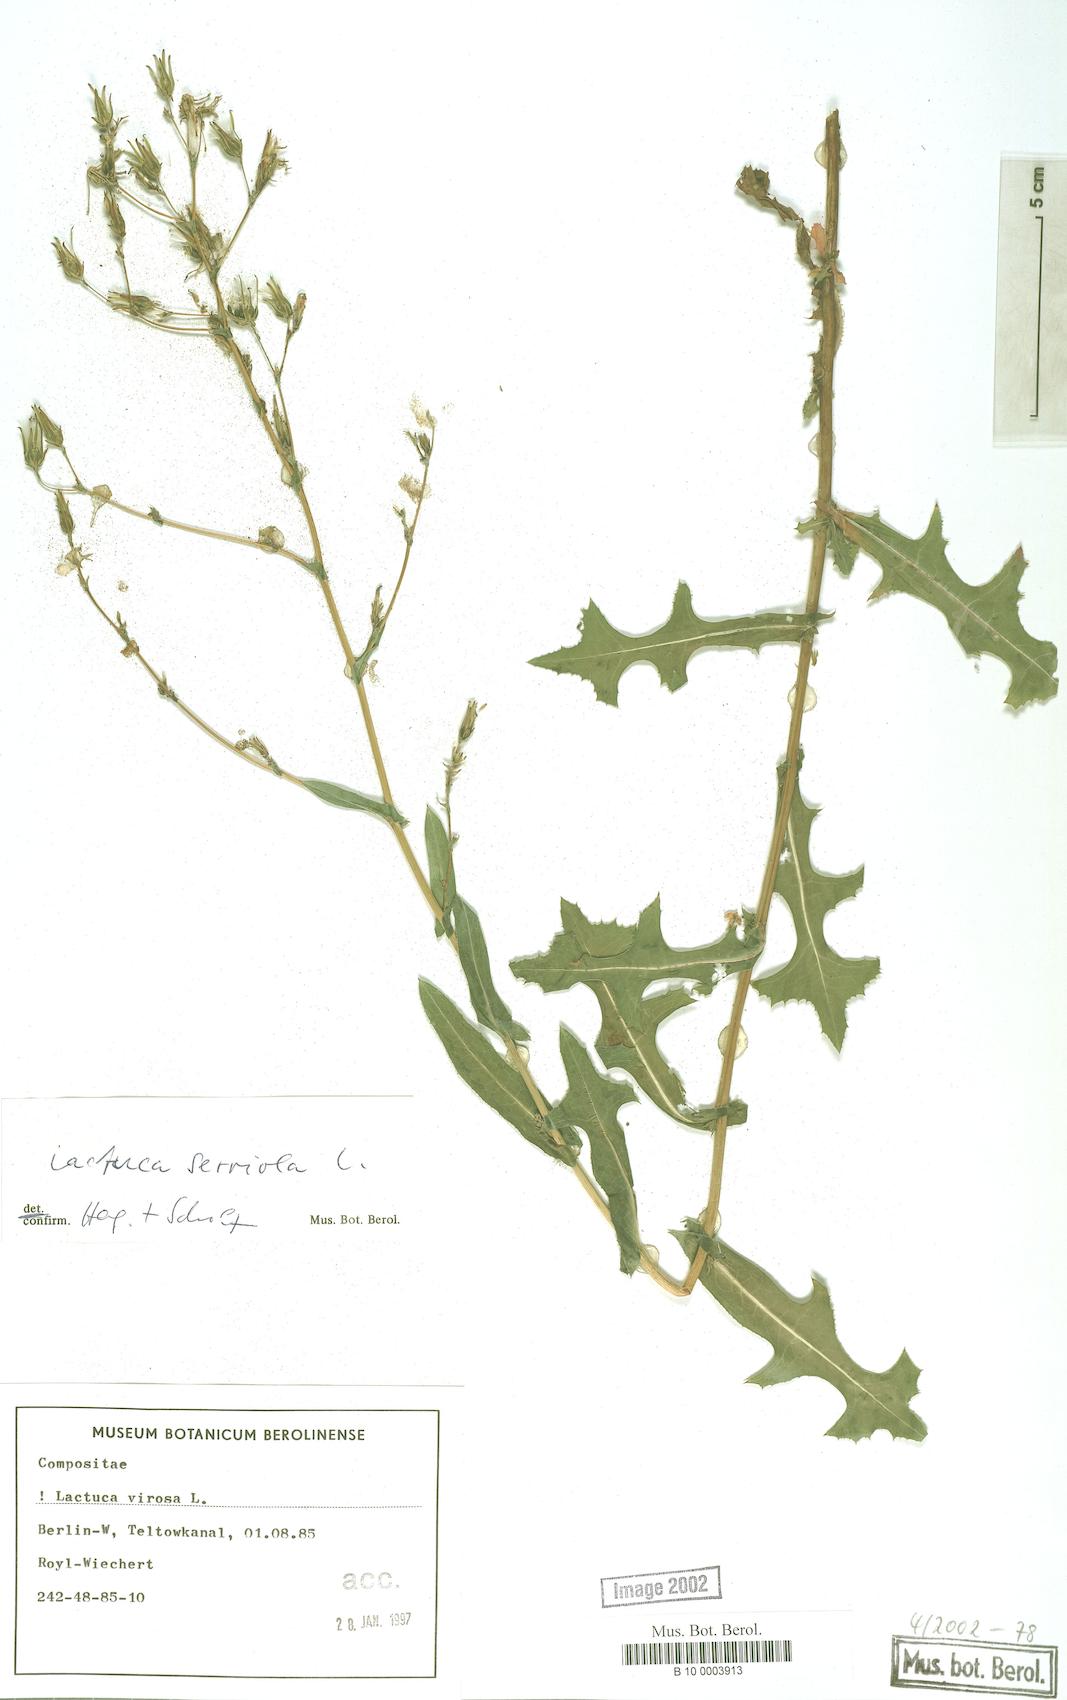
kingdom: Plantae
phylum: Tracheophyta
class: Magnoliopsida
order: Asterales
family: Asteraceae
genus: Lactuca
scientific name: Lactuca serriola
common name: Prickly lettuce
